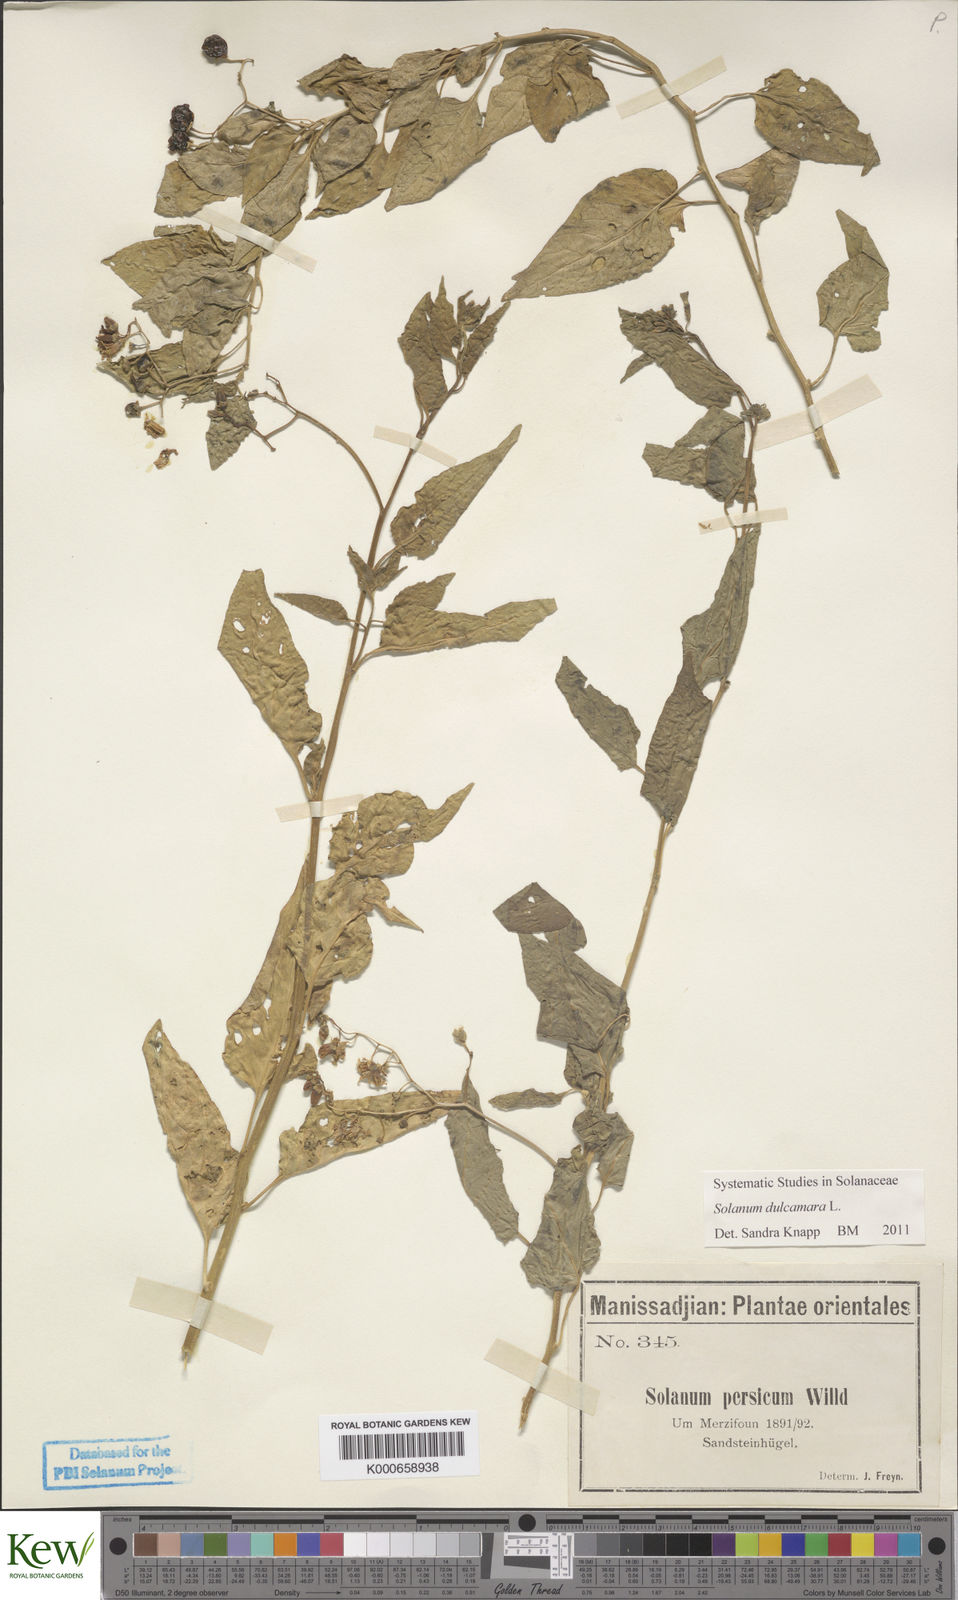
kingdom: Plantae
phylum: Tracheophyta
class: Magnoliopsida
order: Solanales
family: Solanaceae
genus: Solanum
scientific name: Solanum dulcamara
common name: Climbing nightshade
